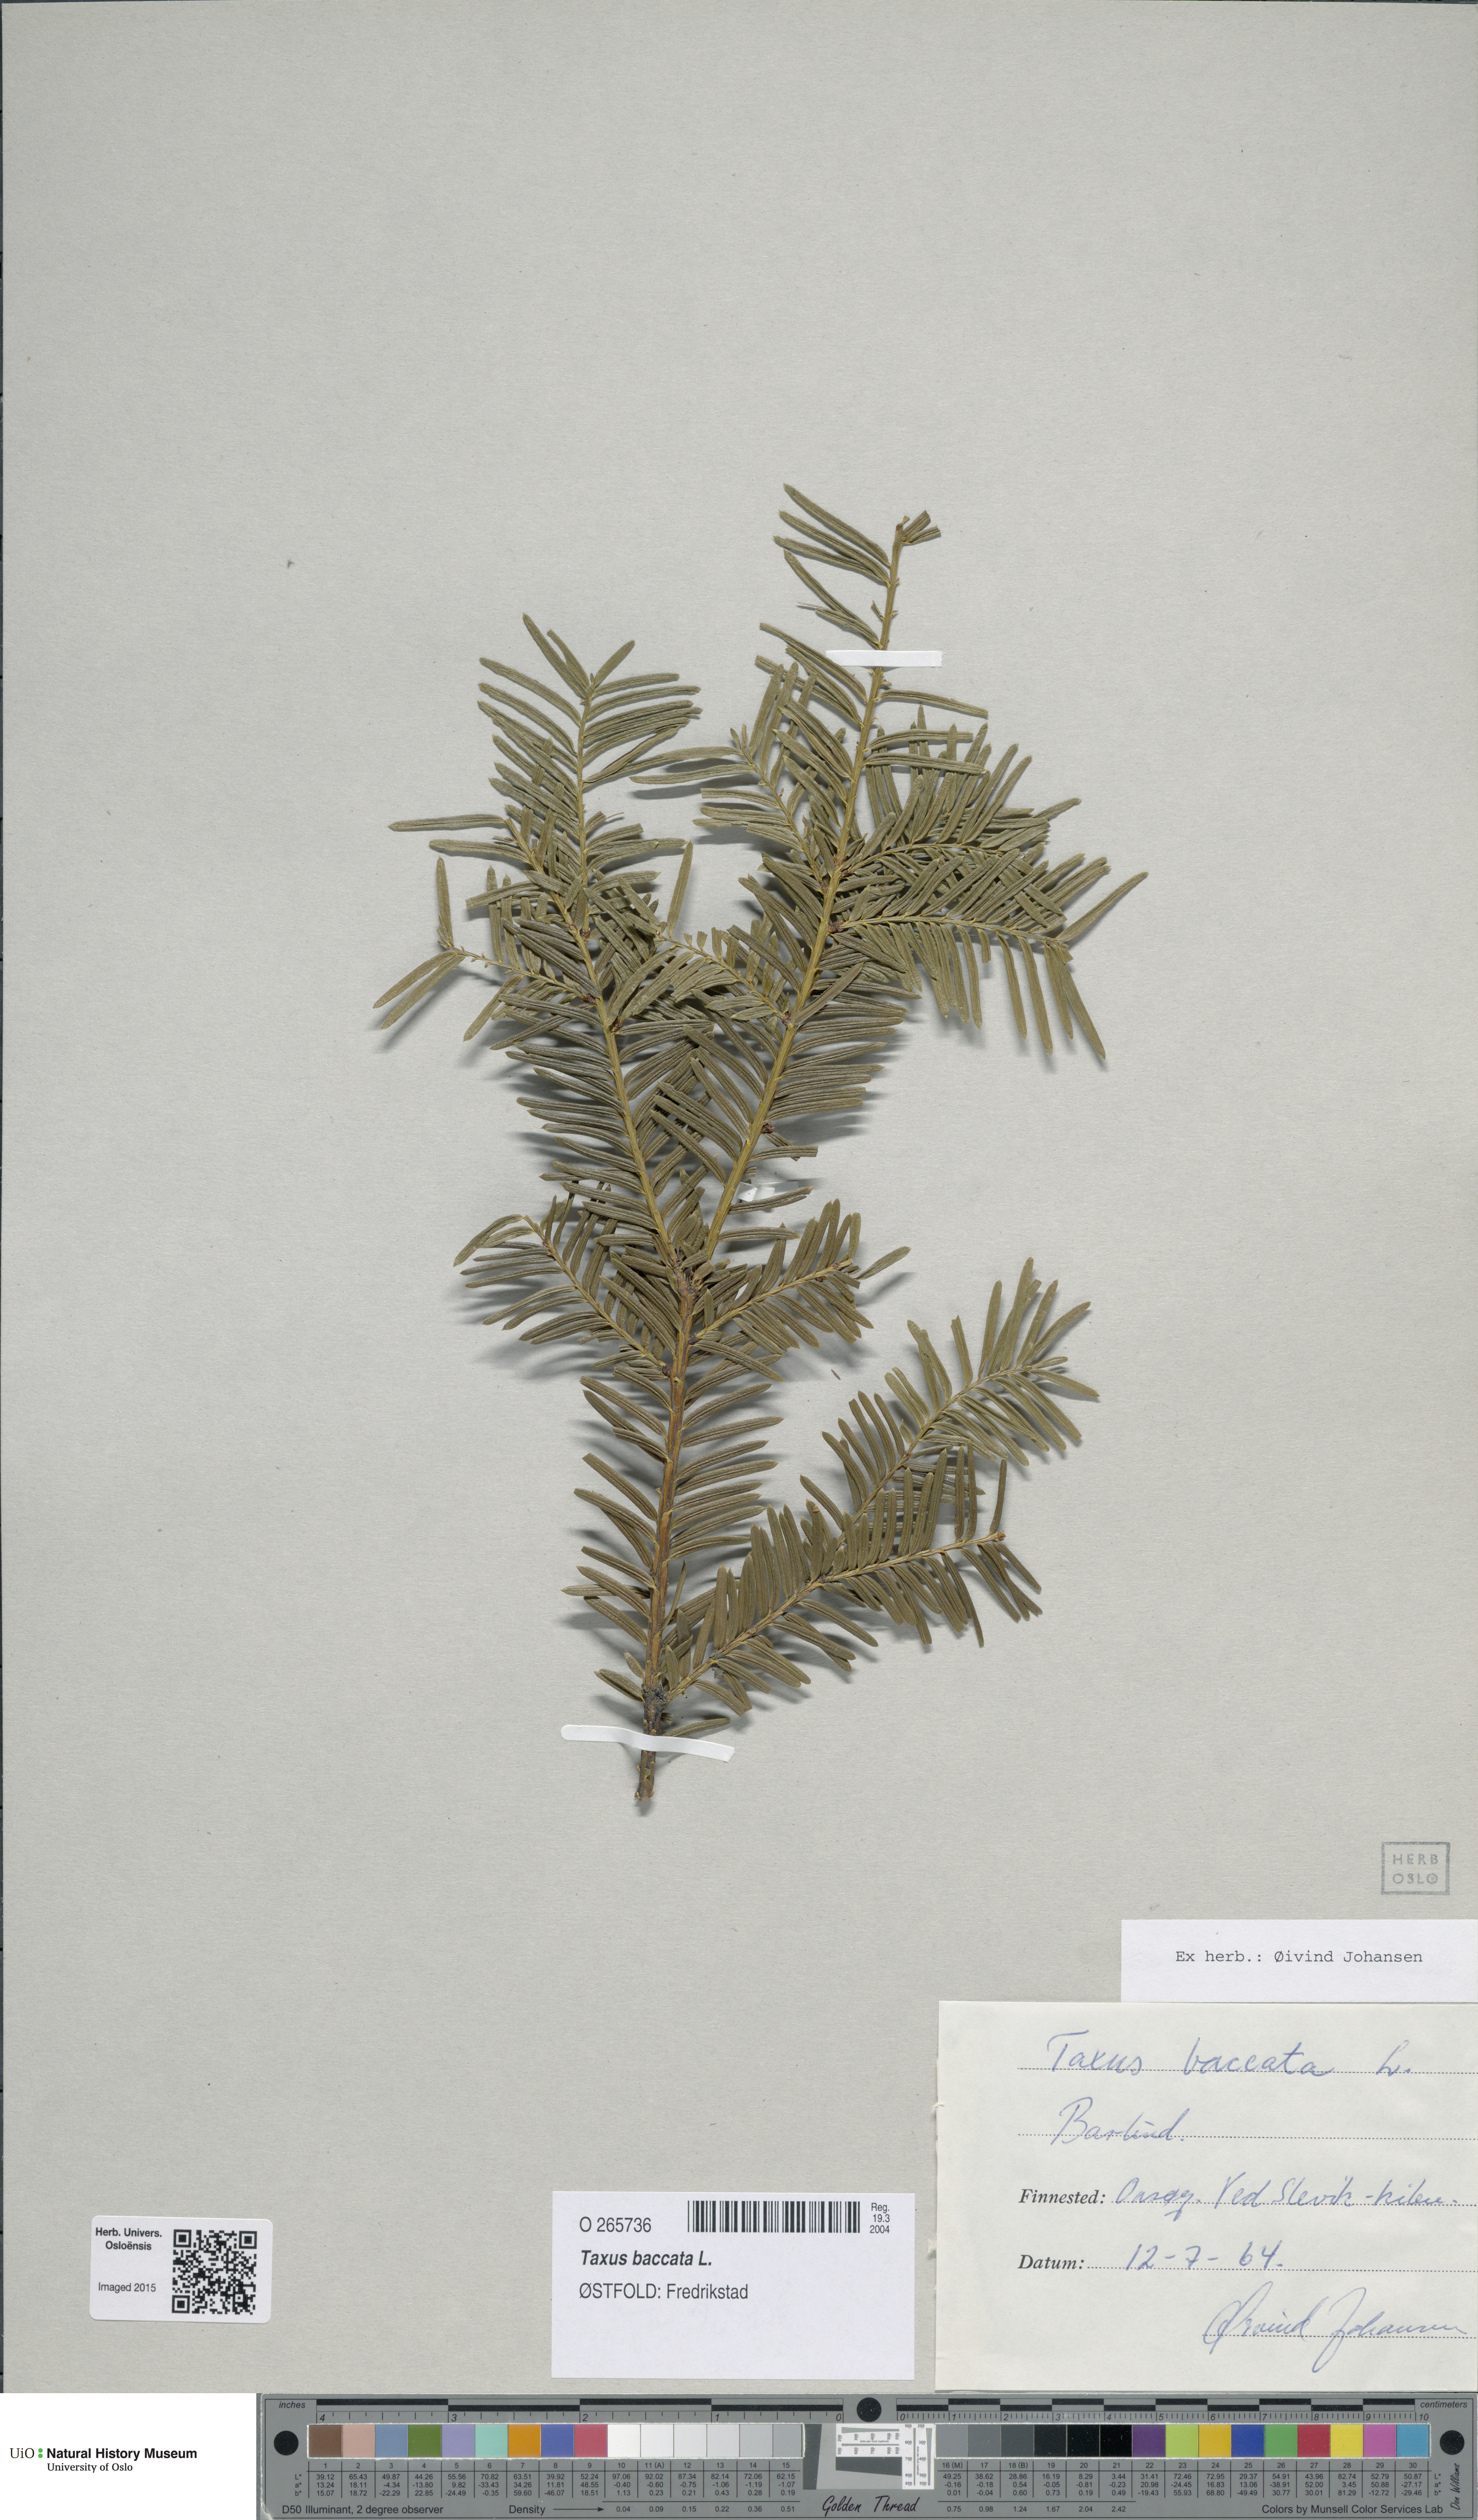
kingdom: Plantae
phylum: Tracheophyta
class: Pinopsida
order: Pinales
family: Taxaceae
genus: Taxus
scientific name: Taxus baccata
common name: Yew
